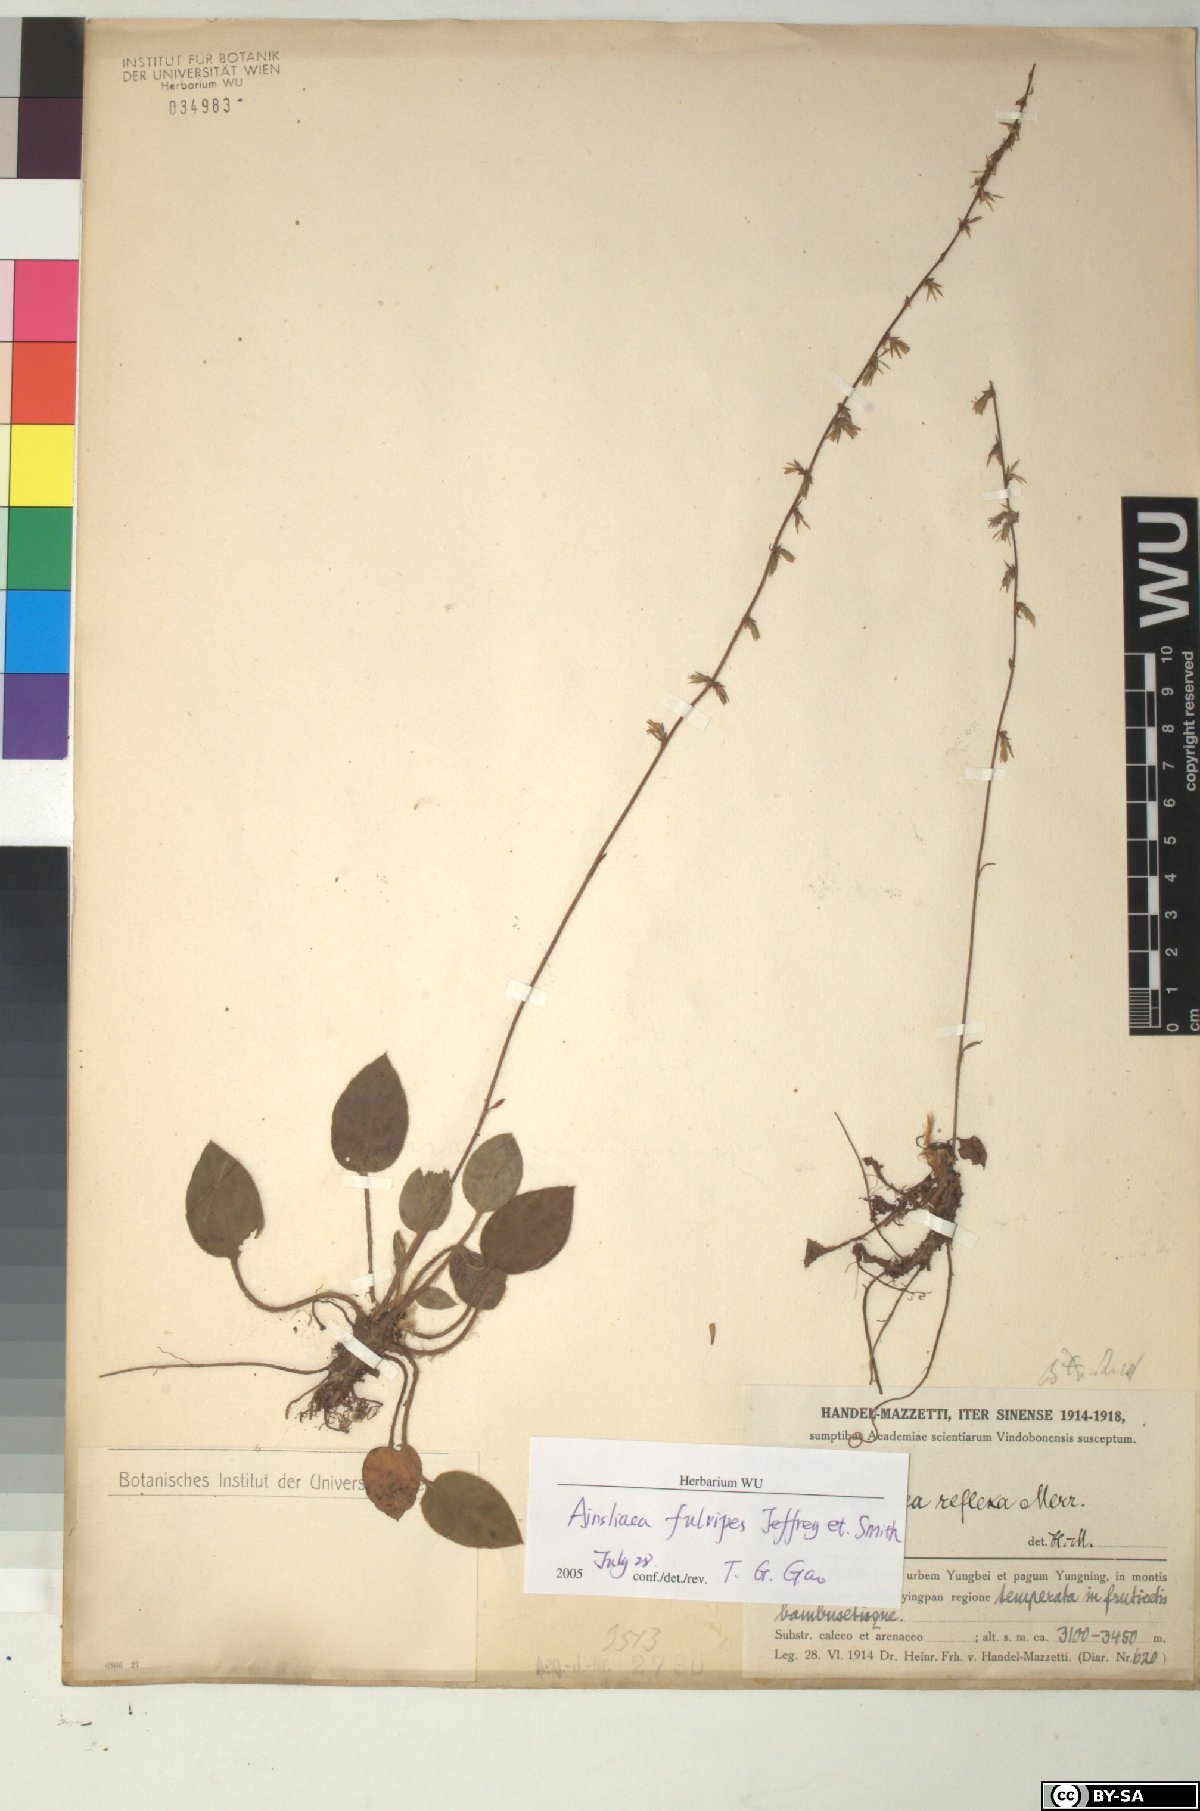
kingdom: Plantae
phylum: Tracheophyta
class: Magnoliopsida
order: Asterales
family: Asteraceae
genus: Ainsliaea
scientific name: Ainsliaea fulvipes
